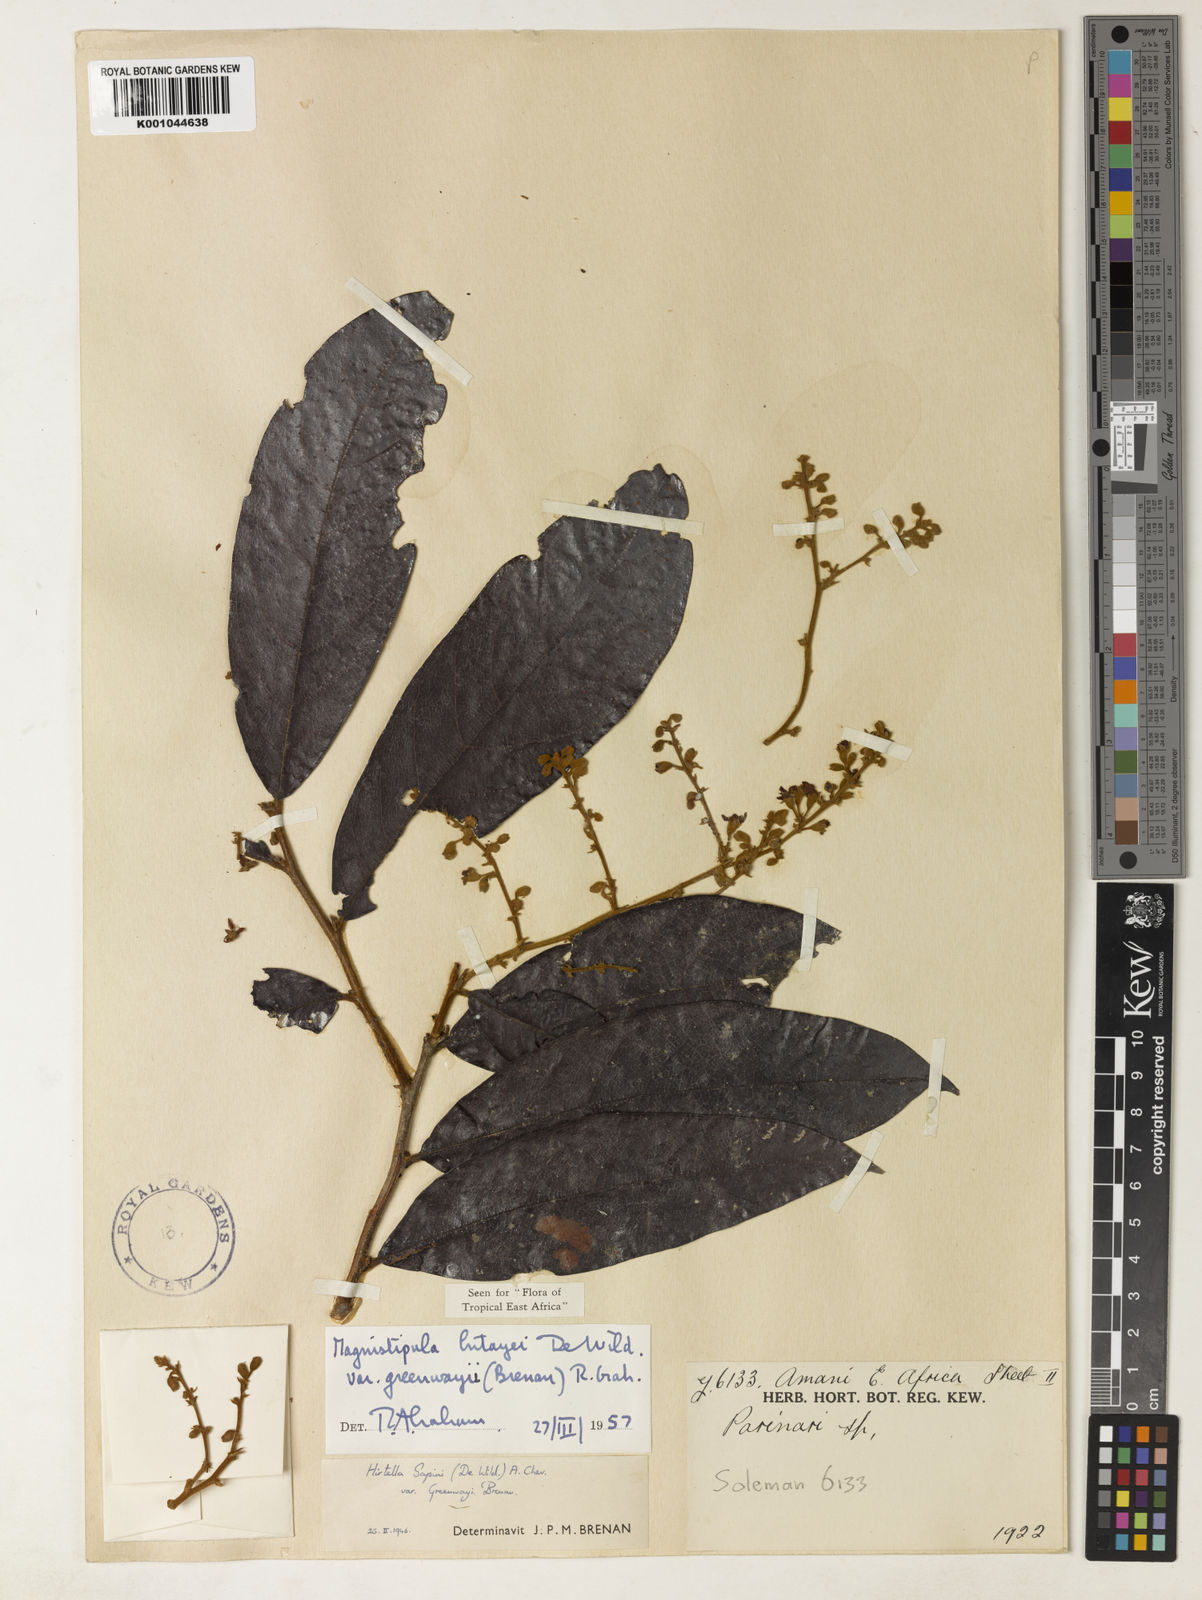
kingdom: Plantae
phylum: Tracheophyta
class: Magnoliopsida
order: Malpighiales
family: Chrysobalanaceae
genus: Magnistipula
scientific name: Magnistipula butayei
